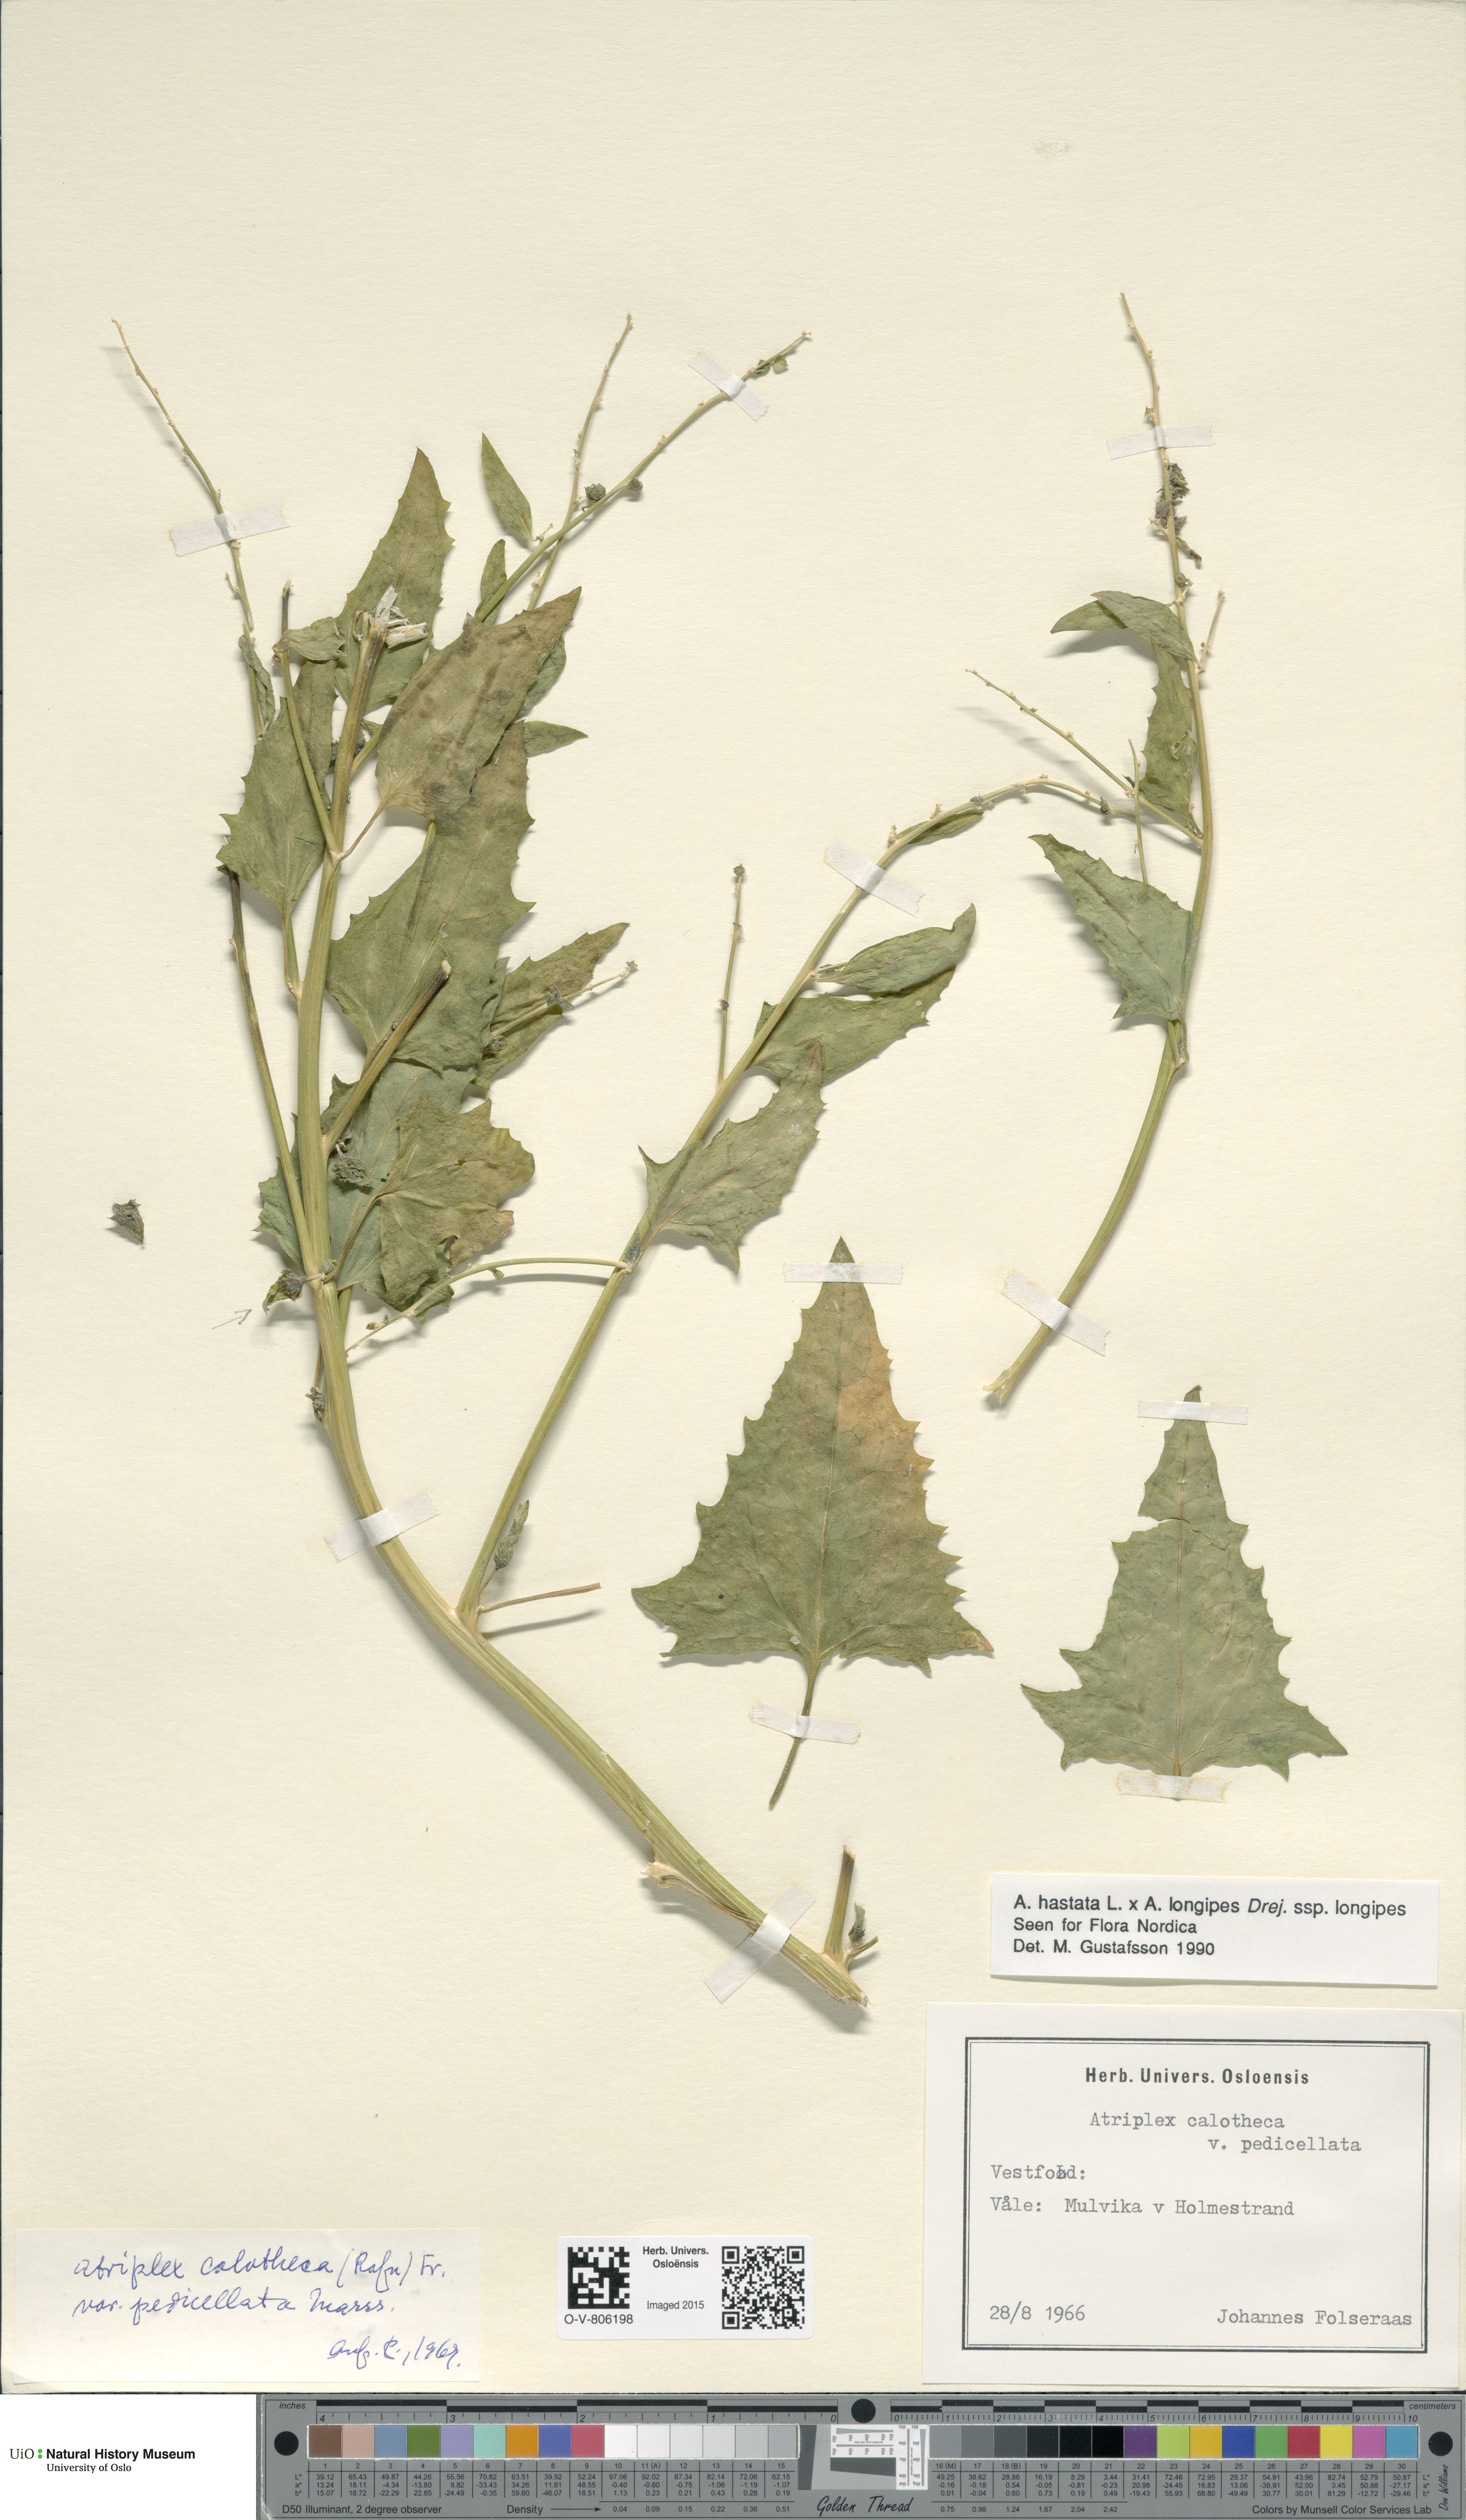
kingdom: Plantae
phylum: Tracheophyta
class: Magnoliopsida
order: Caryophyllales
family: Amaranthaceae
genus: Atriplex
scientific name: Atriplex
